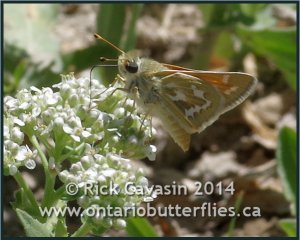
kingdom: Animalia
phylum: Arthropoda
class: Insecta
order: Lepidoptera
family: Hesperiidae
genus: Hesperia
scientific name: Hesperia comma
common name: Western Branded Skipper
